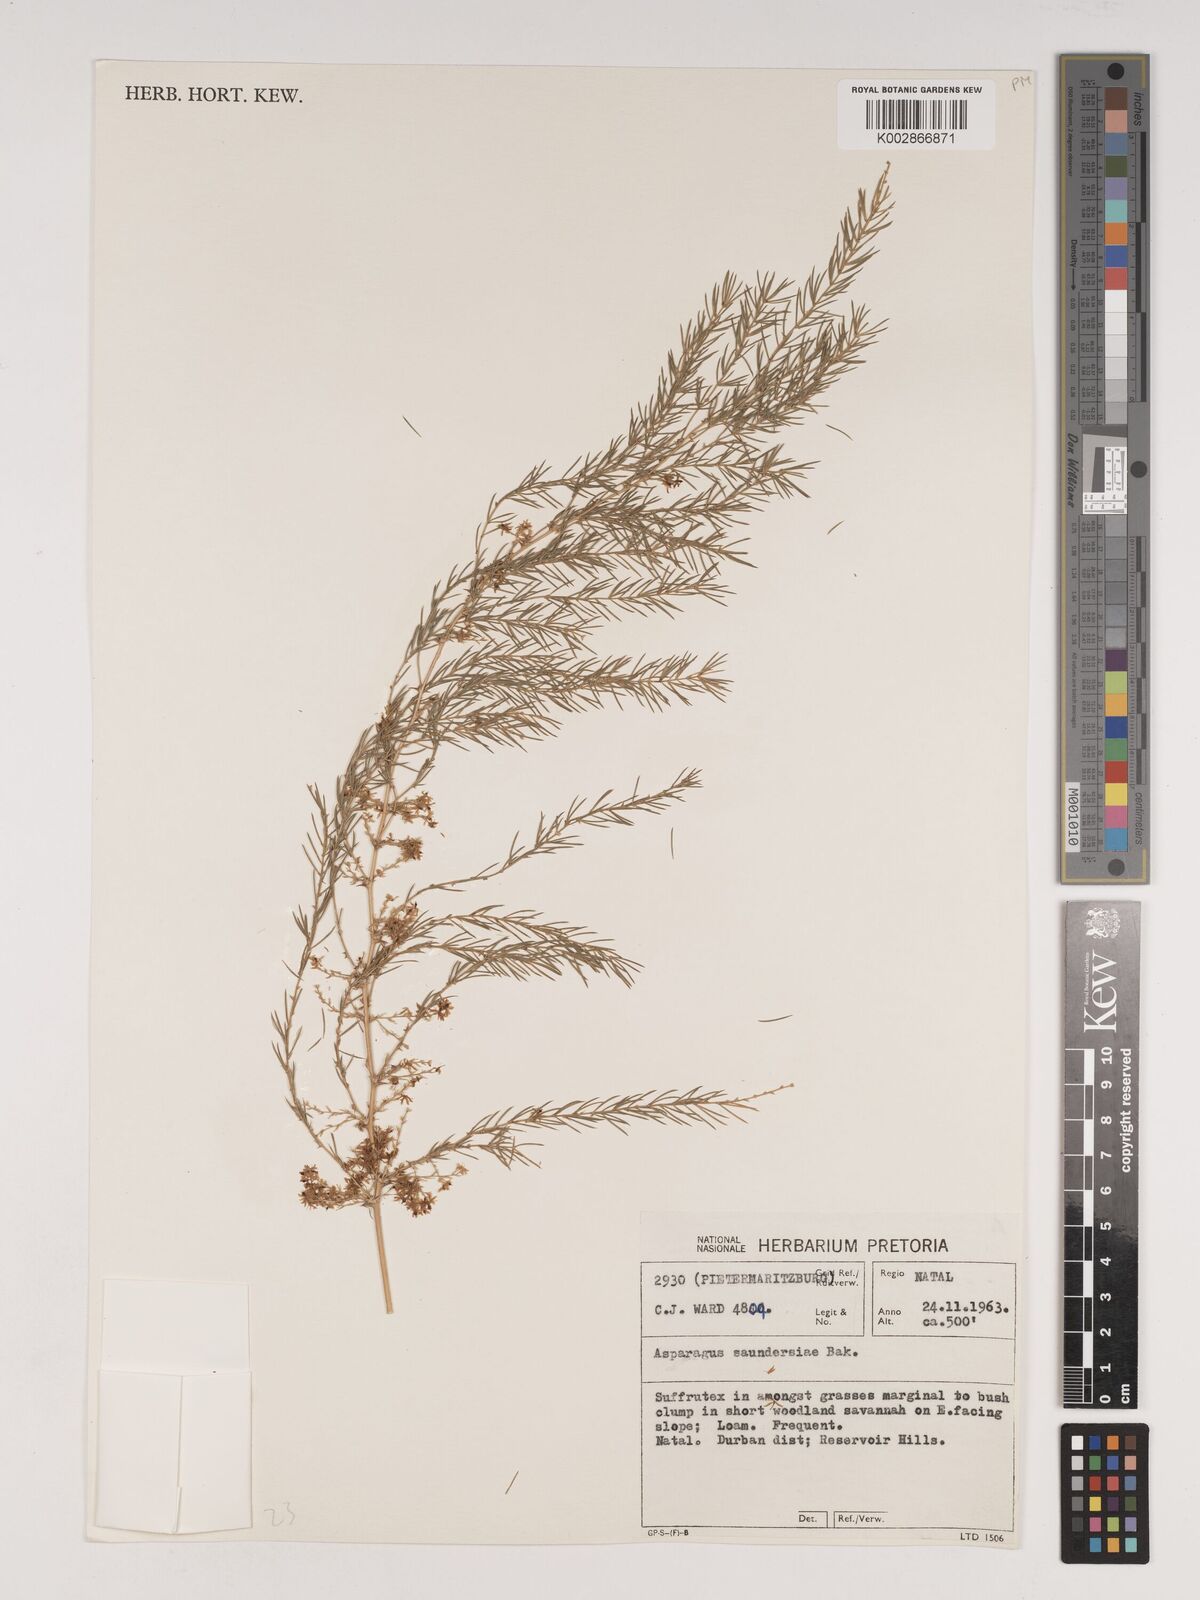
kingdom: Plantae
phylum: Tracheophyta
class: Liliopsida
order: Asparagales
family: Asparagaceae
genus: Asparagus
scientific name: Asparagus saundersiae
